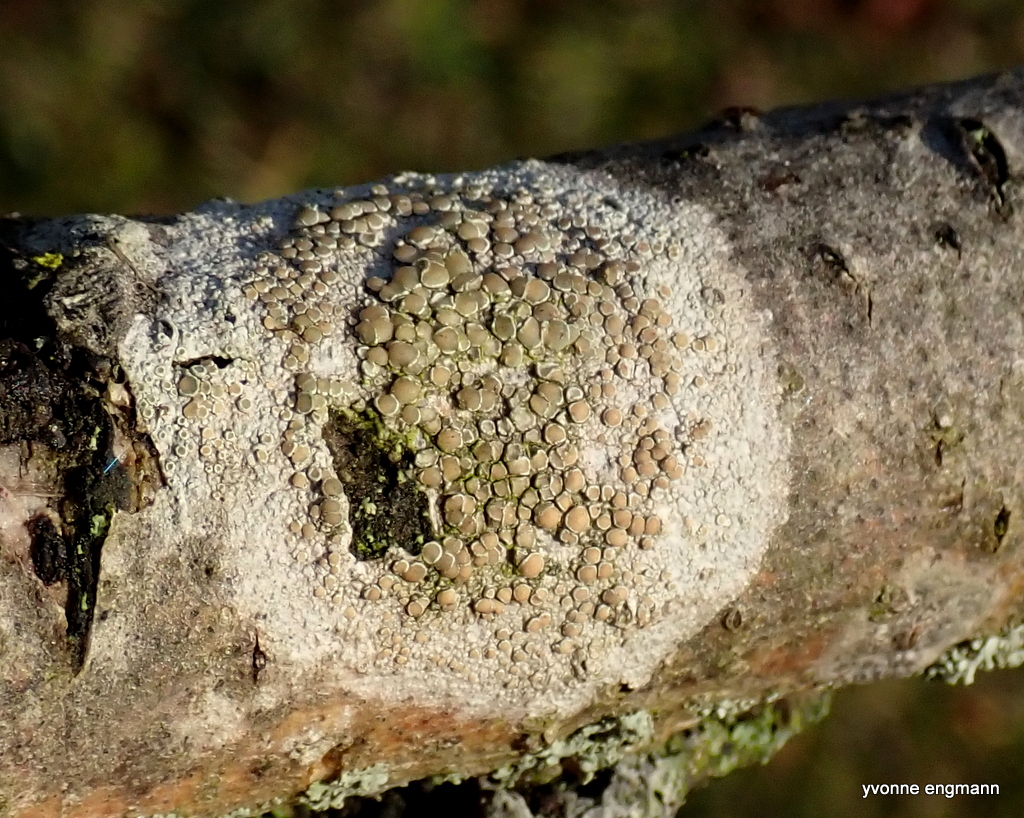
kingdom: Fungi
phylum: Ascomycota
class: Lecanoromycetes
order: Lecanorales
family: Lecanoraceae
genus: Lecanora
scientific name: Lecanora chlarotera
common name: brun kantskivelav
